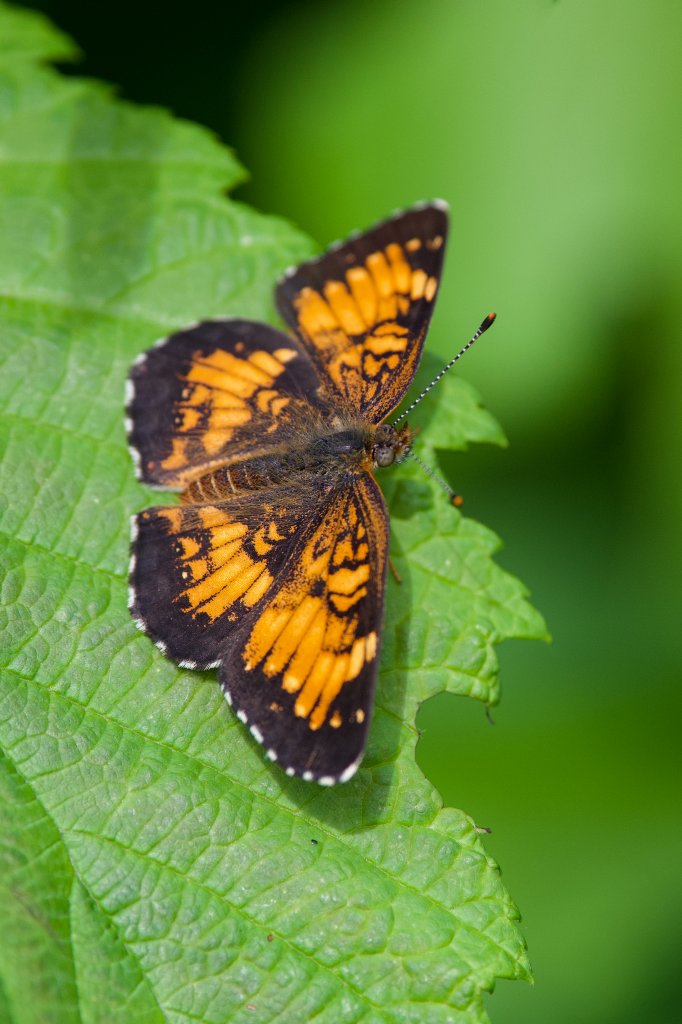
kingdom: Animalia
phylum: Arthropoda
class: Insecta
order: Lepidoptera
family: Nymphalidae
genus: Chlosyne
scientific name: Chlosyne harrisii
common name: Harris's Checkerspot
